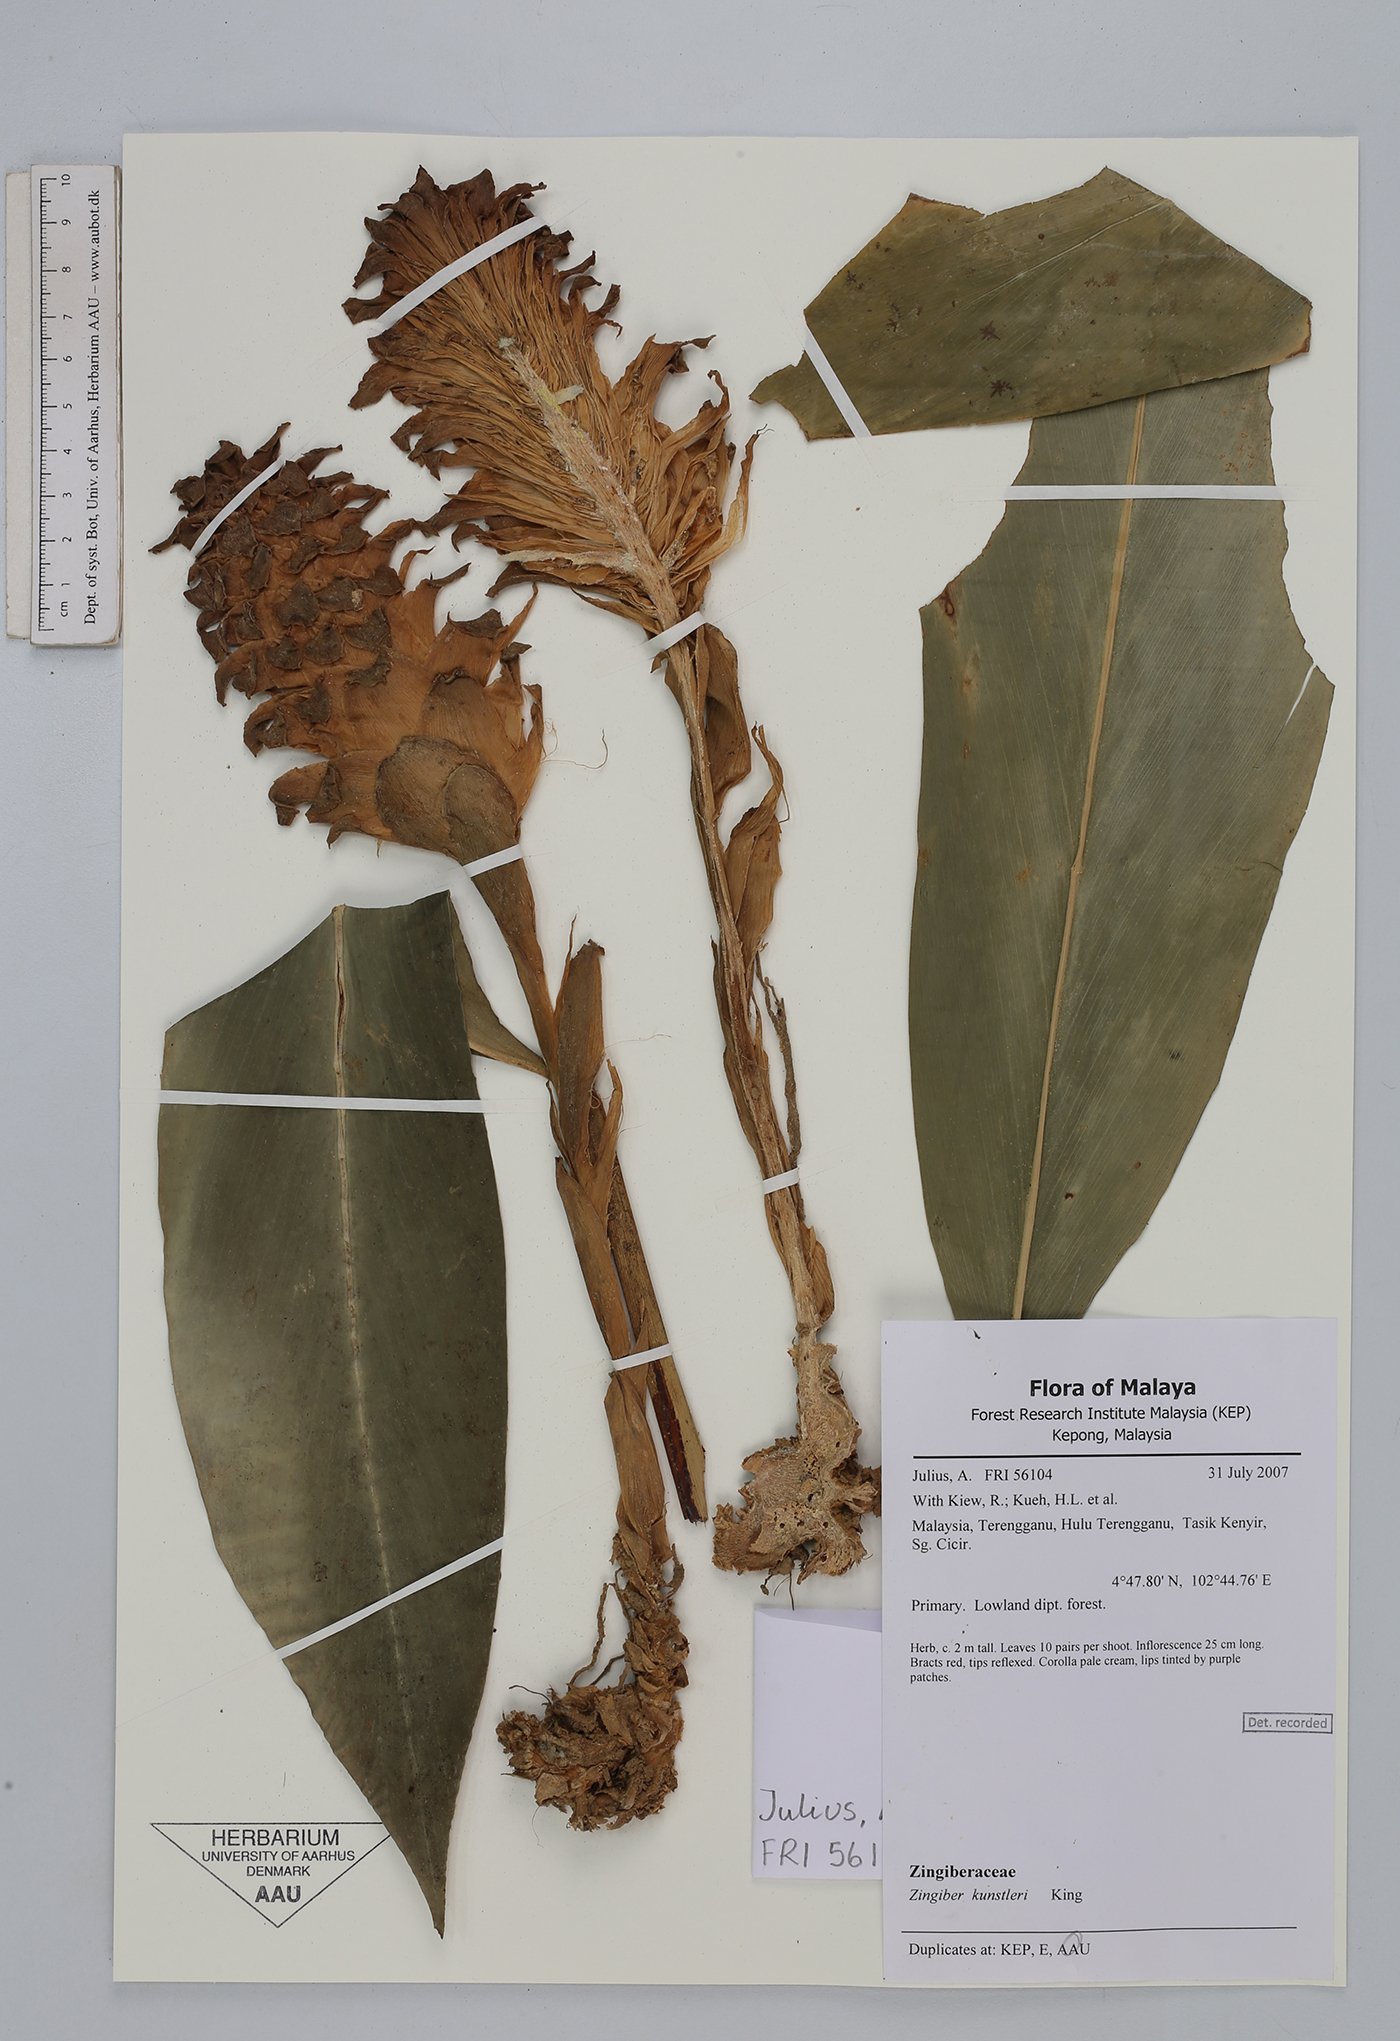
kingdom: Plantae
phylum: Tracheophyta
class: Liliopsida
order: Zingiberales
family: Zingiberaceae
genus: Zingiber
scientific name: Zingiber kunstleri
